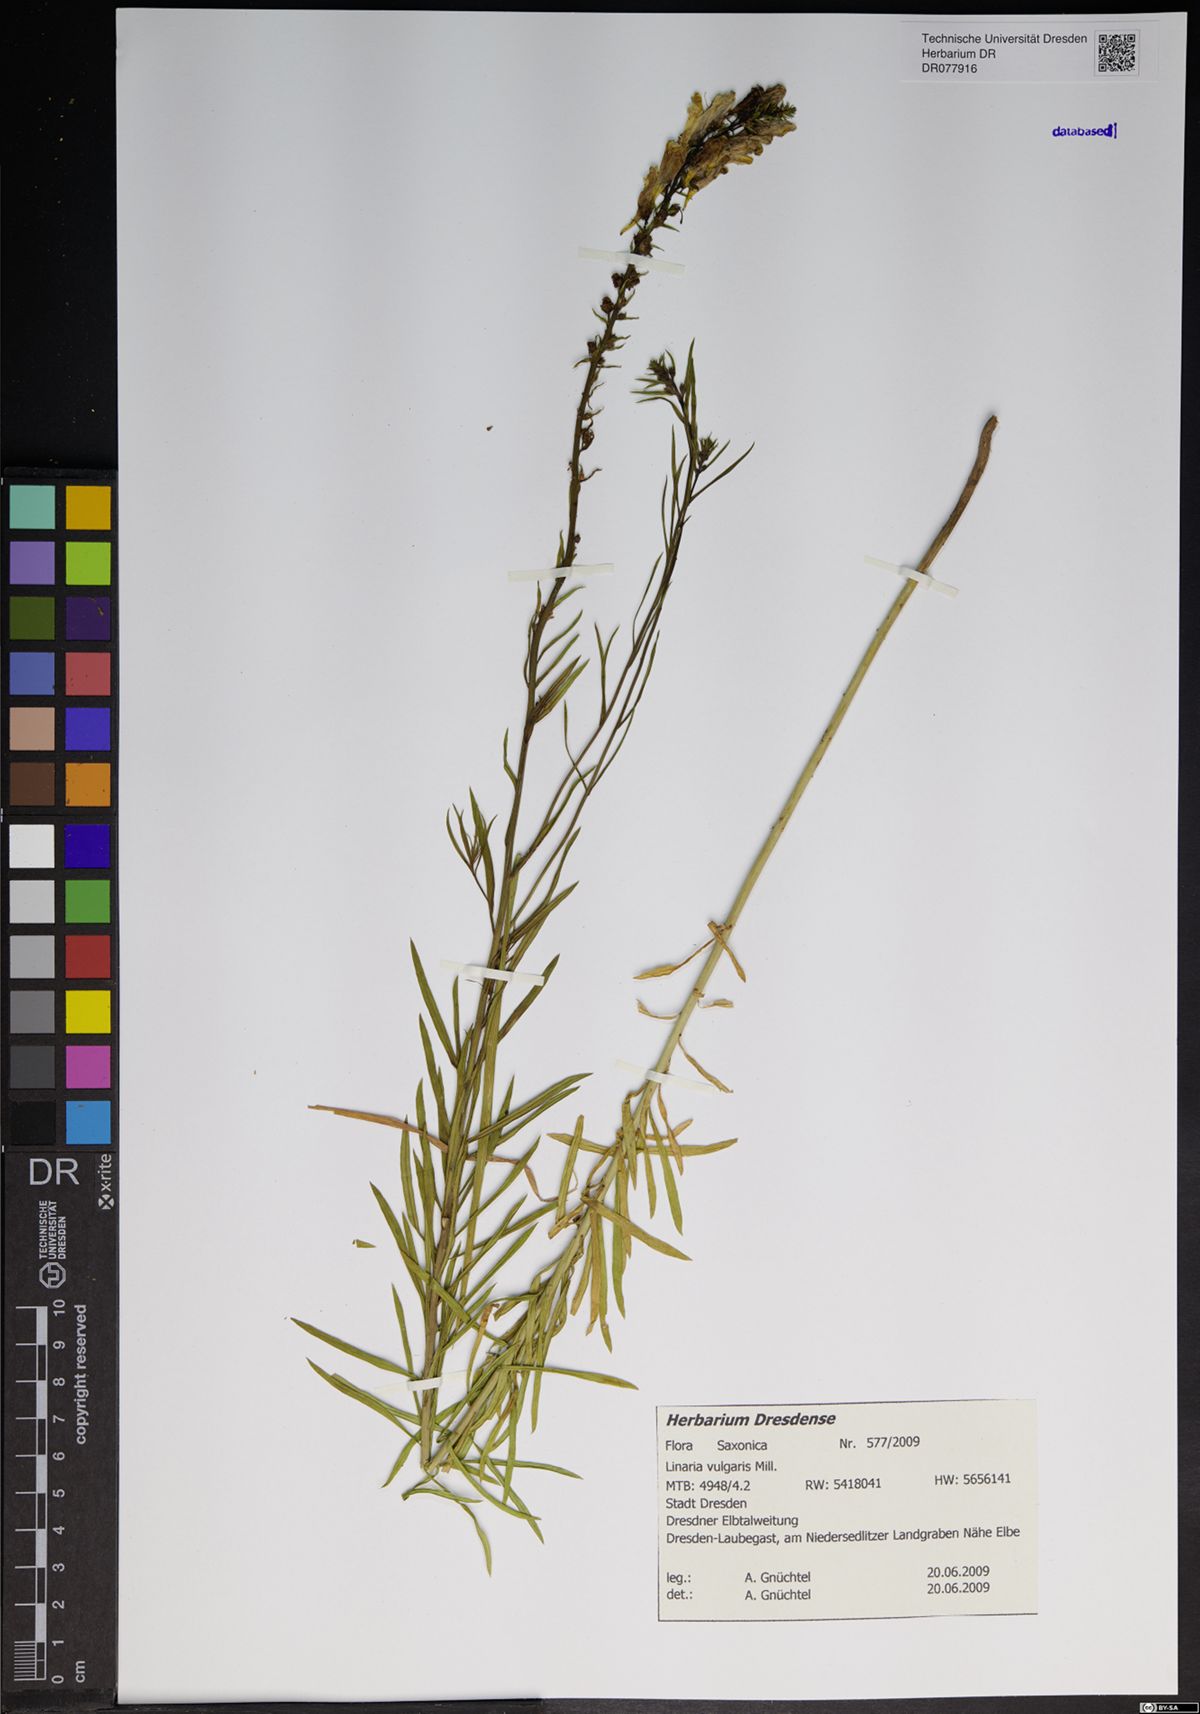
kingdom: Plantae
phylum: Tracheophyta
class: Magnoliopsida
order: Lamiales
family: Plantaginaceae
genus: Linaria
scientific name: Linaria vulgaris
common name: Butter and eggs
